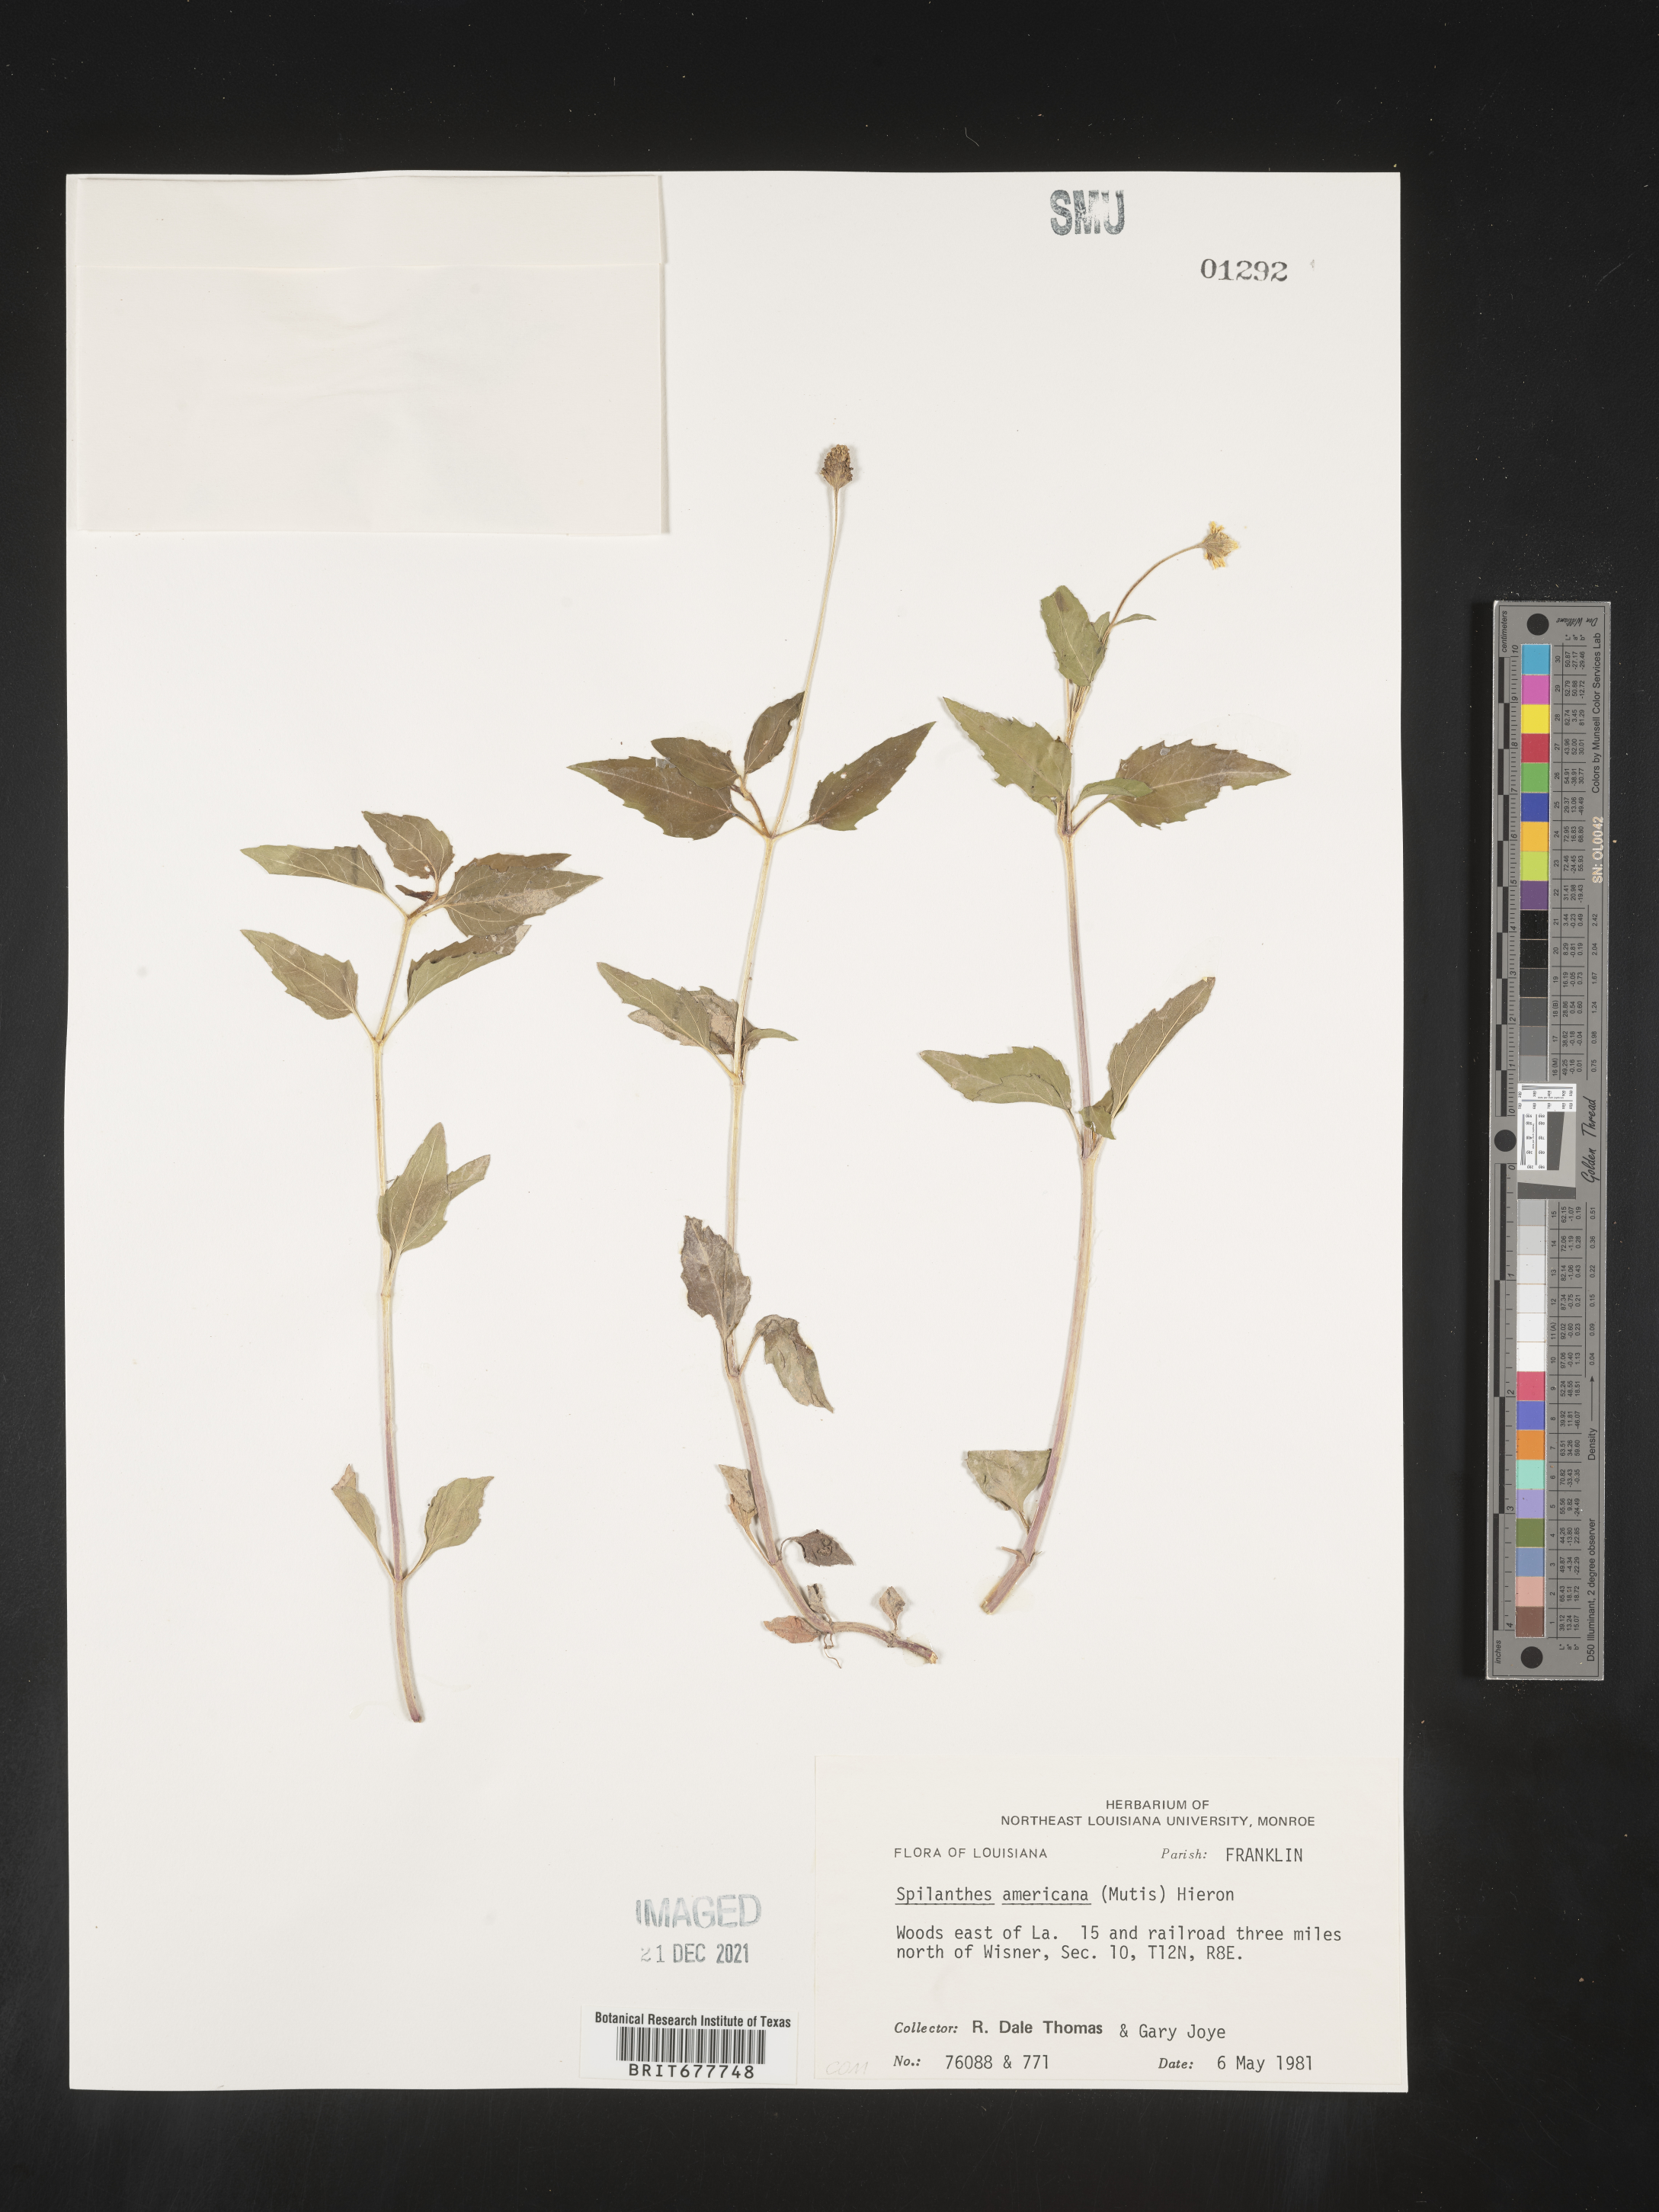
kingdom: Plantae
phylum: Tracheophyta
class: Magnoliopsida
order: Asterales
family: Asteraceae
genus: Spilanthes
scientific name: Spilanthes
